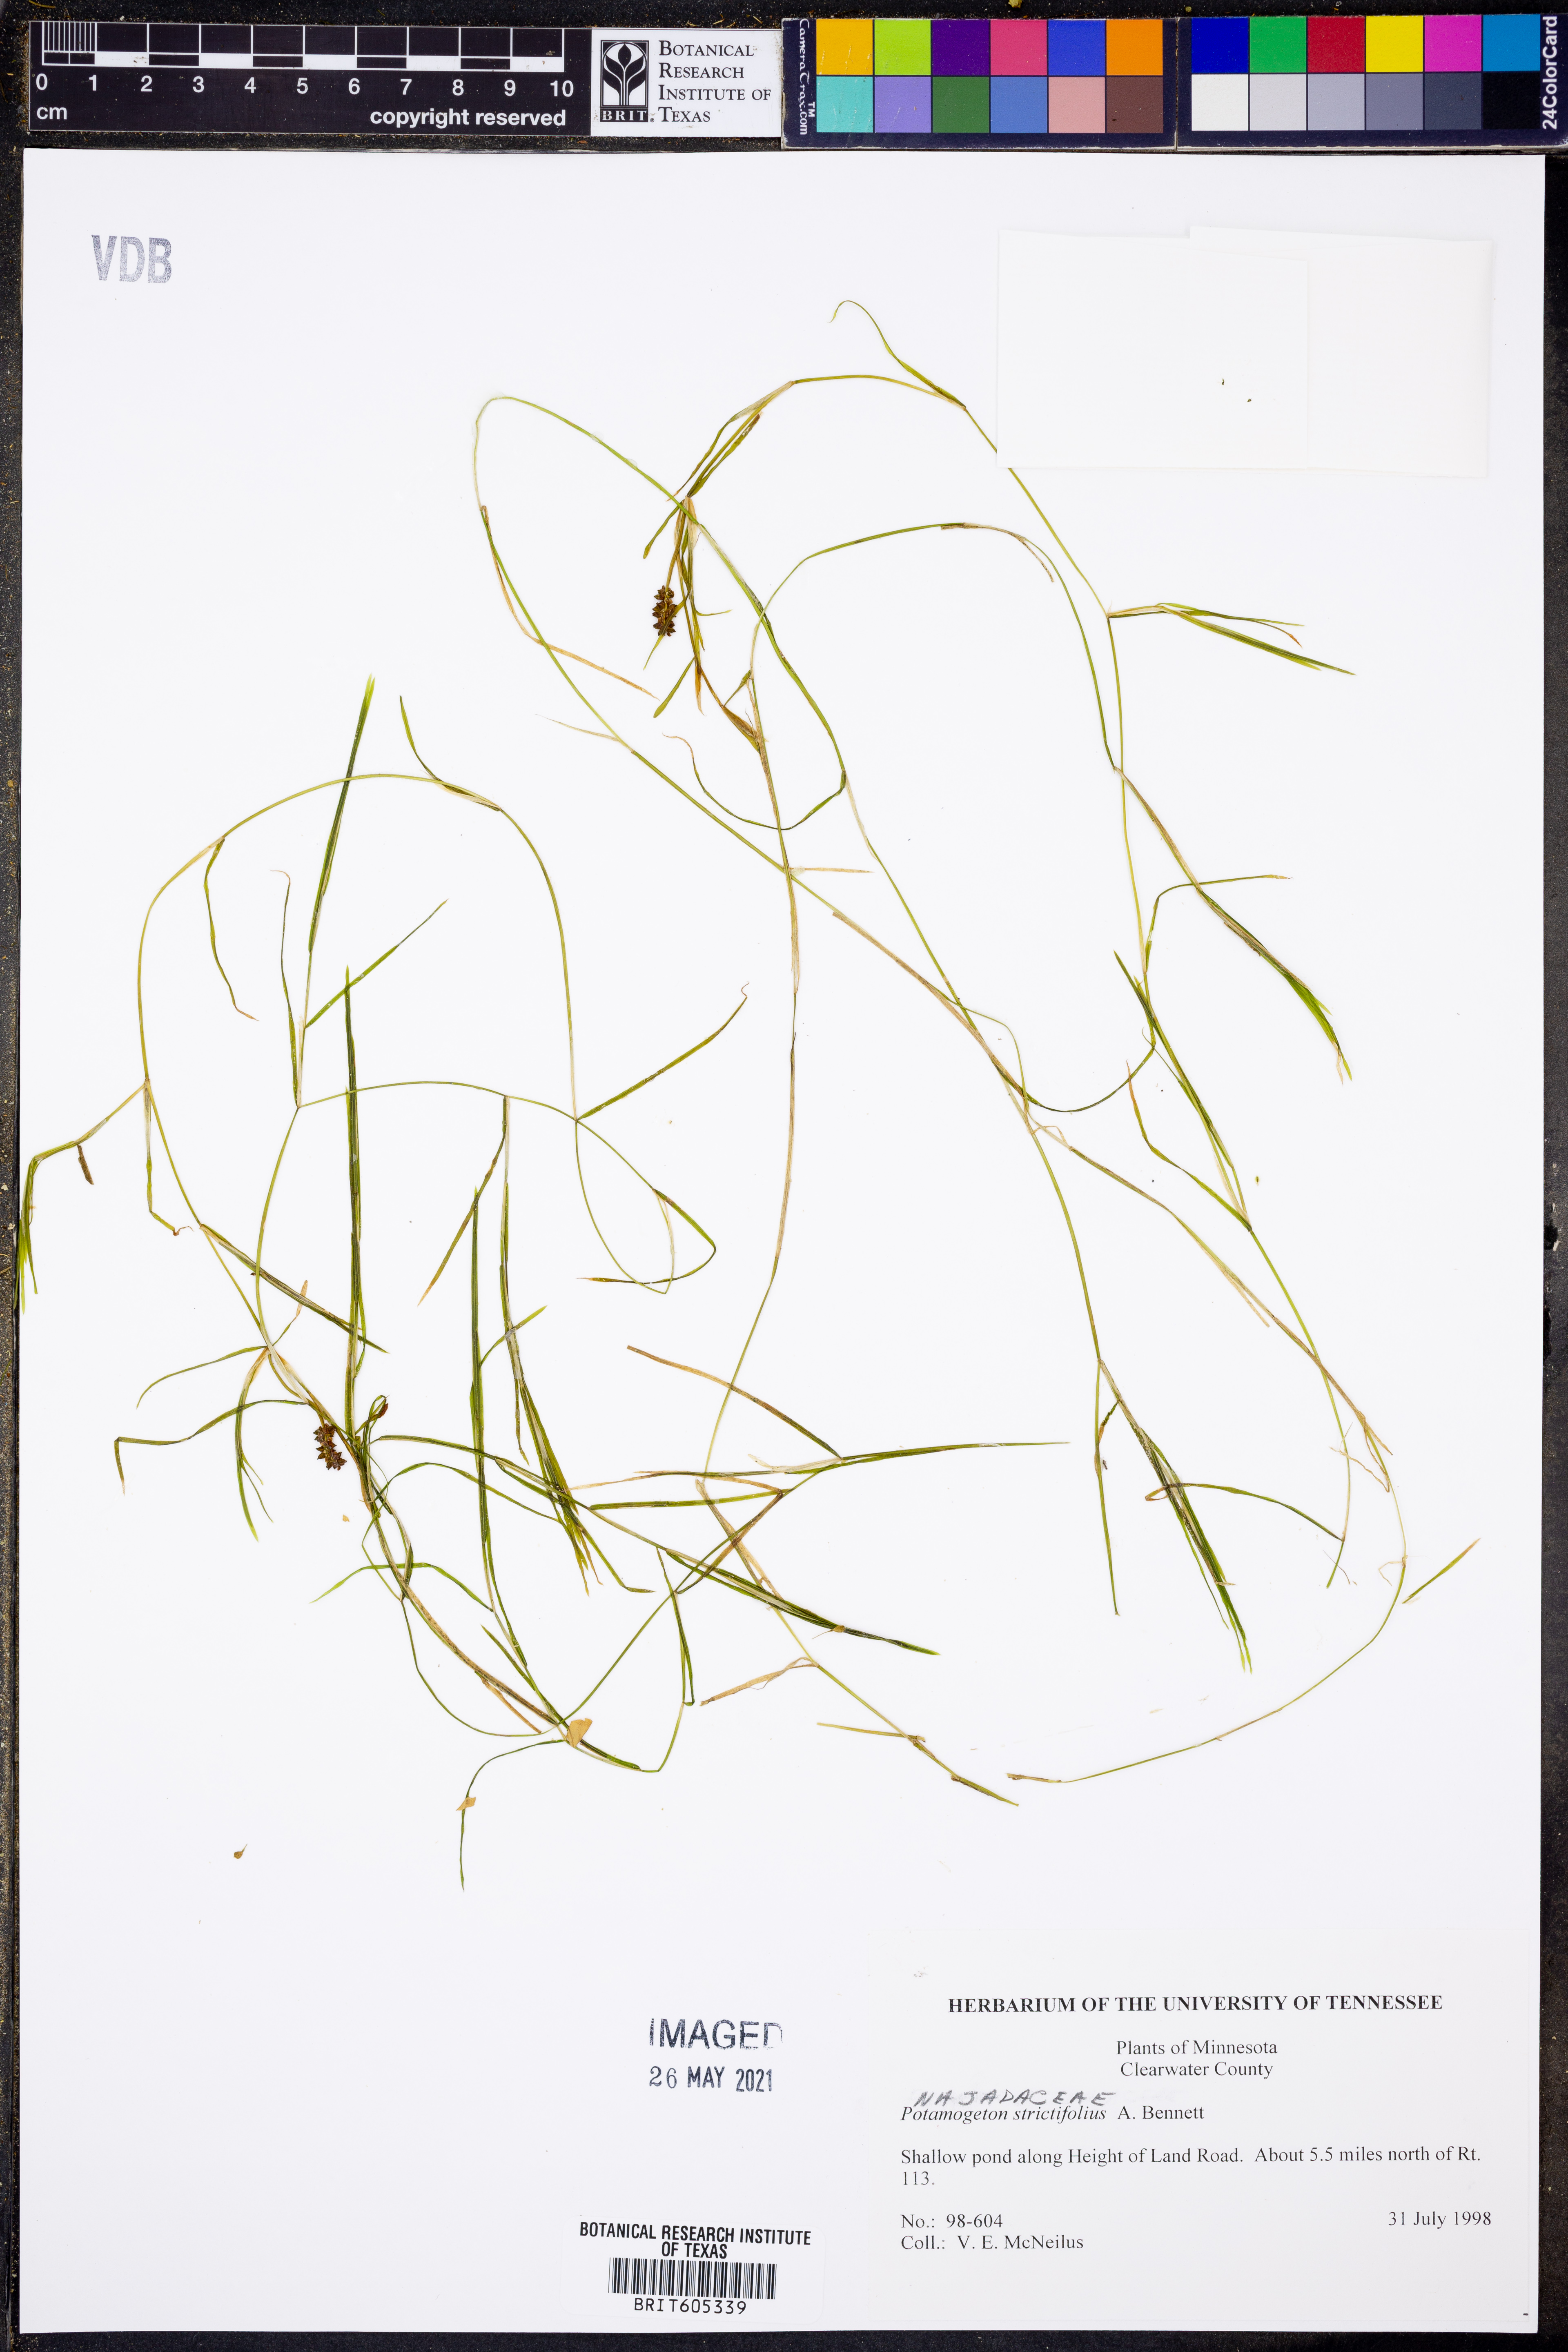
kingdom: Plantae
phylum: Tracheophyta
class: Liliopsida
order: Alismatales
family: Potamogetonaceae
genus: Potamogeton
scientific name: Potamogeton strictifolius
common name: Linear-leaved pondweed
